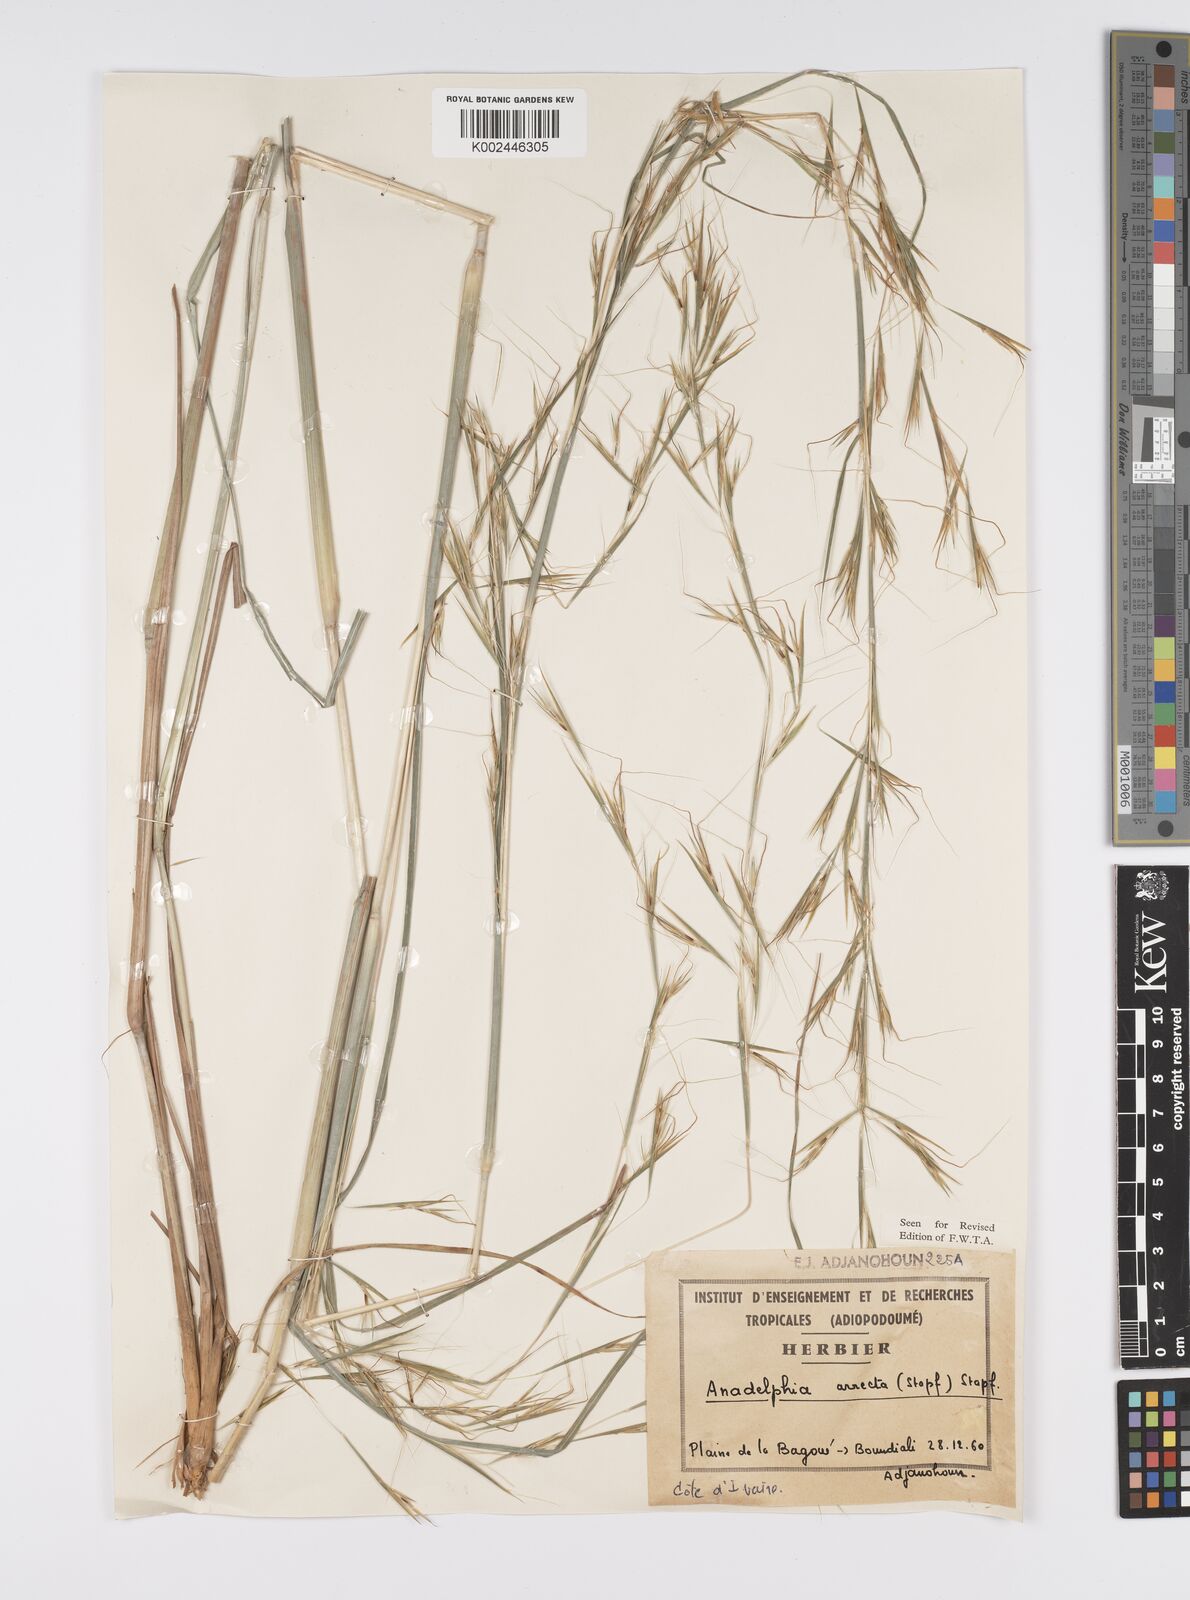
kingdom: Plantae
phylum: Tracheophyta
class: Liliopsida
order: Poales
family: Poaceae
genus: Anadelphia
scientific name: Anadelphia afzeliana
